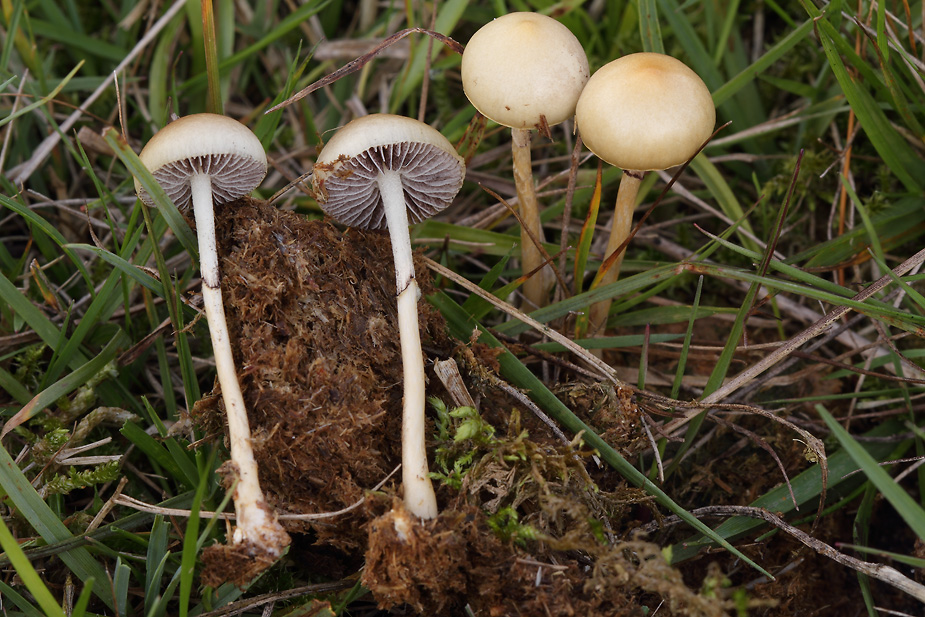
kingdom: Fungi
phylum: Basidiomycota
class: Agaricomycetes
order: Agaricales
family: Strophariaceae
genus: Protostropharia
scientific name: Protostropharia semiglobata
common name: halvkugleformet bredblad
